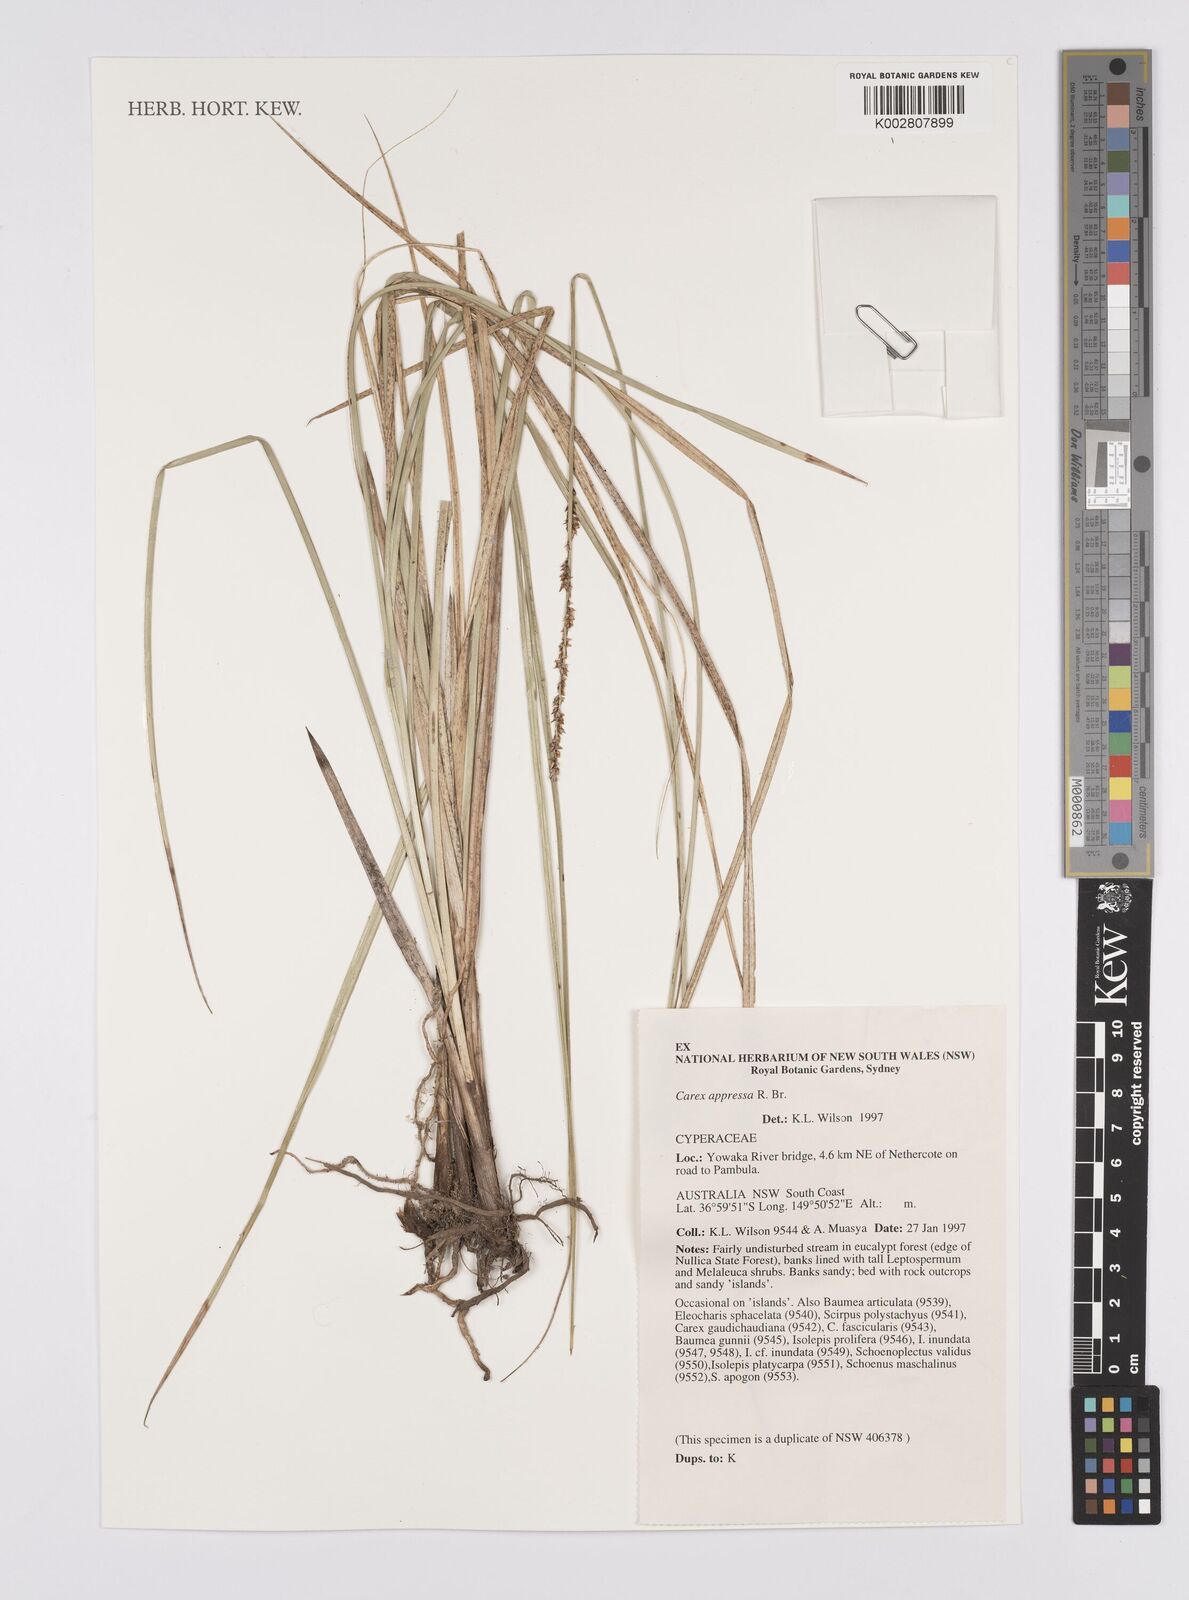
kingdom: Plantae
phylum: Tracheophyta
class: Liliopsida
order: Poales
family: Cyperaceae
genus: Carex
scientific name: Carex appressa
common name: Tussock sedge
